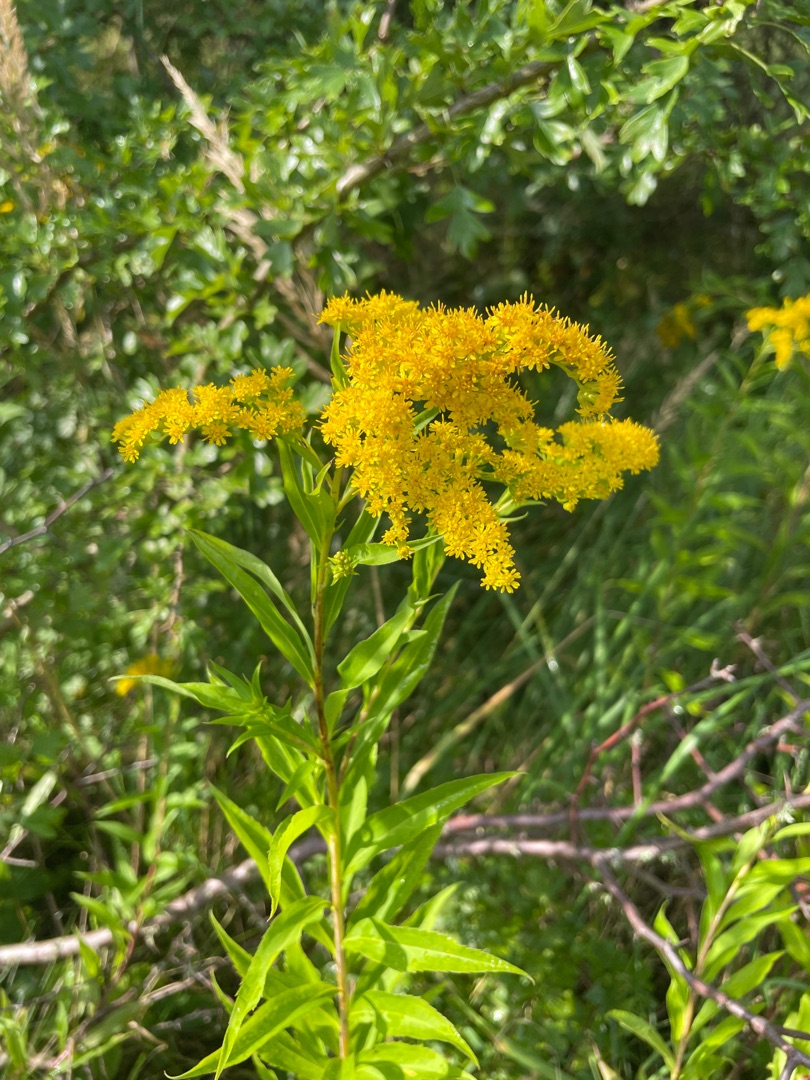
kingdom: Plantae
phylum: Tracheophyta
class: Magnoliopsida
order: Asterales
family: Asteraceae
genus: Solidago
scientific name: Solidago gigantea
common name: Sildig gyldenris
